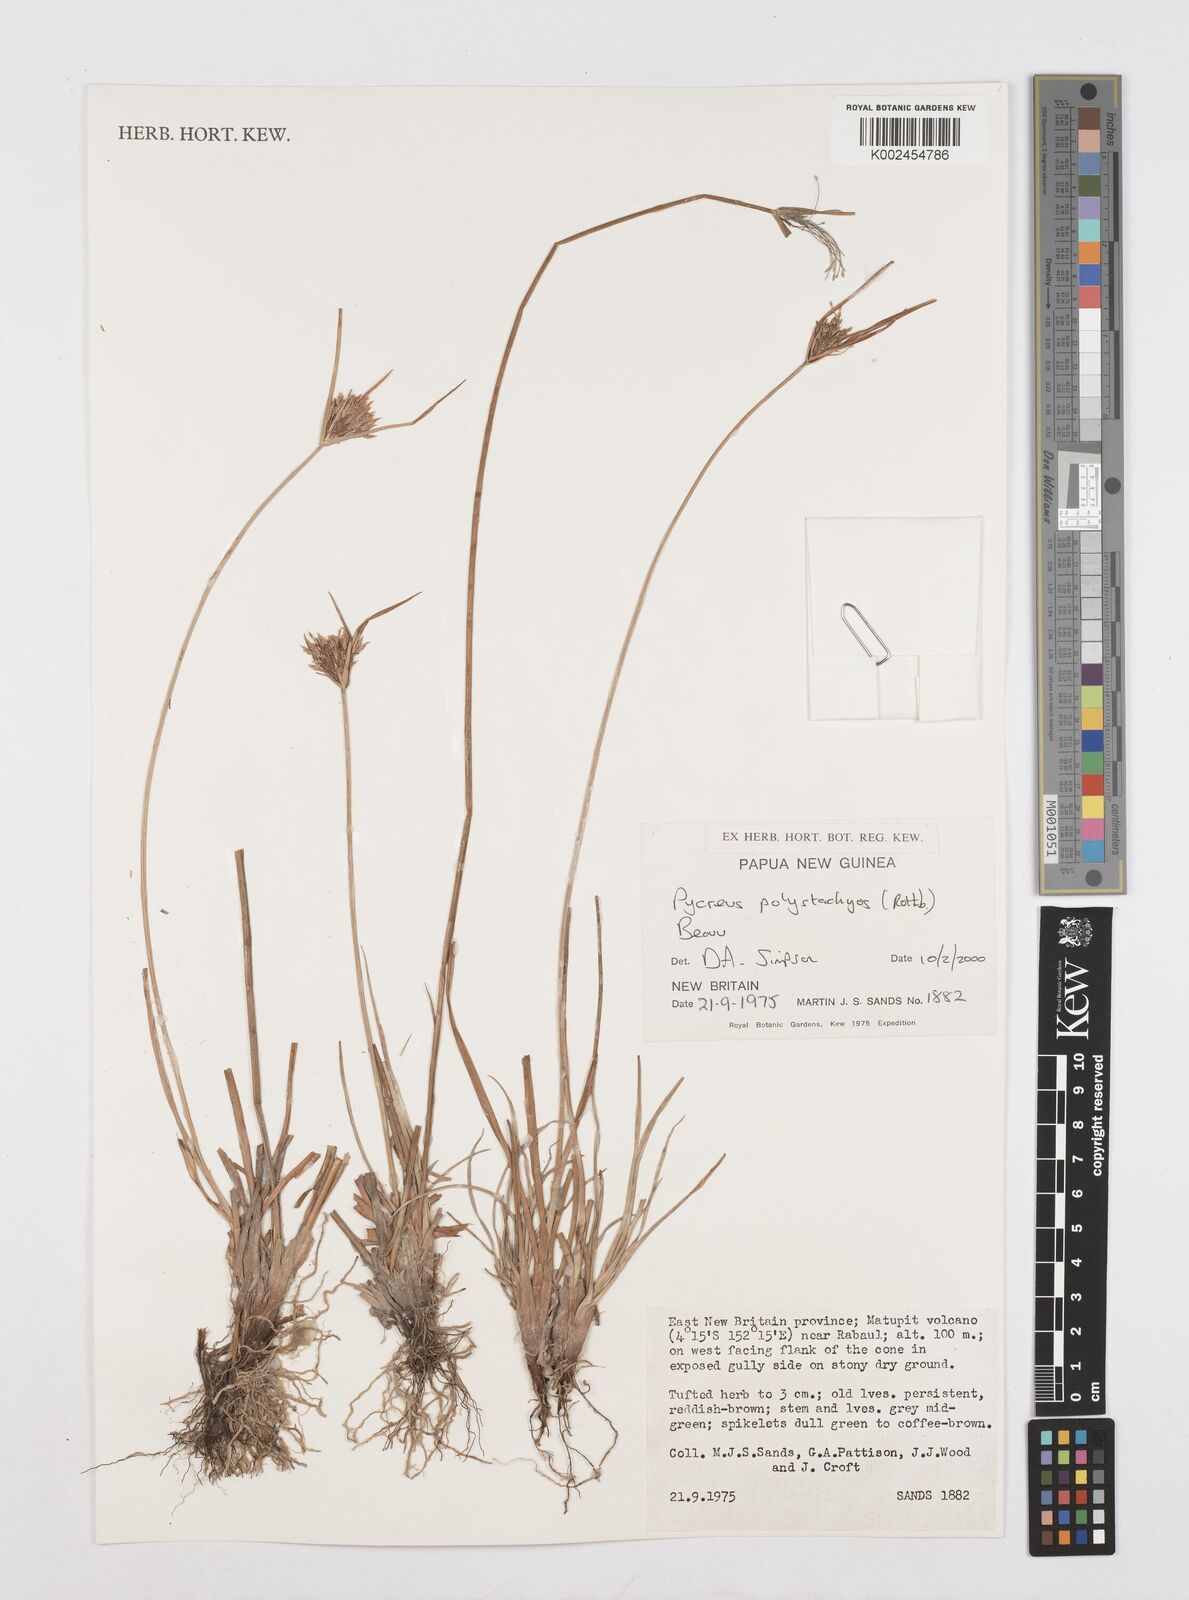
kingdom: Plantae
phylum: Tracheophyta
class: Liliopsida
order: Poales
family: Cyperaceae
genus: Cyperus
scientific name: Cyperus polystachyos
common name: Bunchy flat sedge
